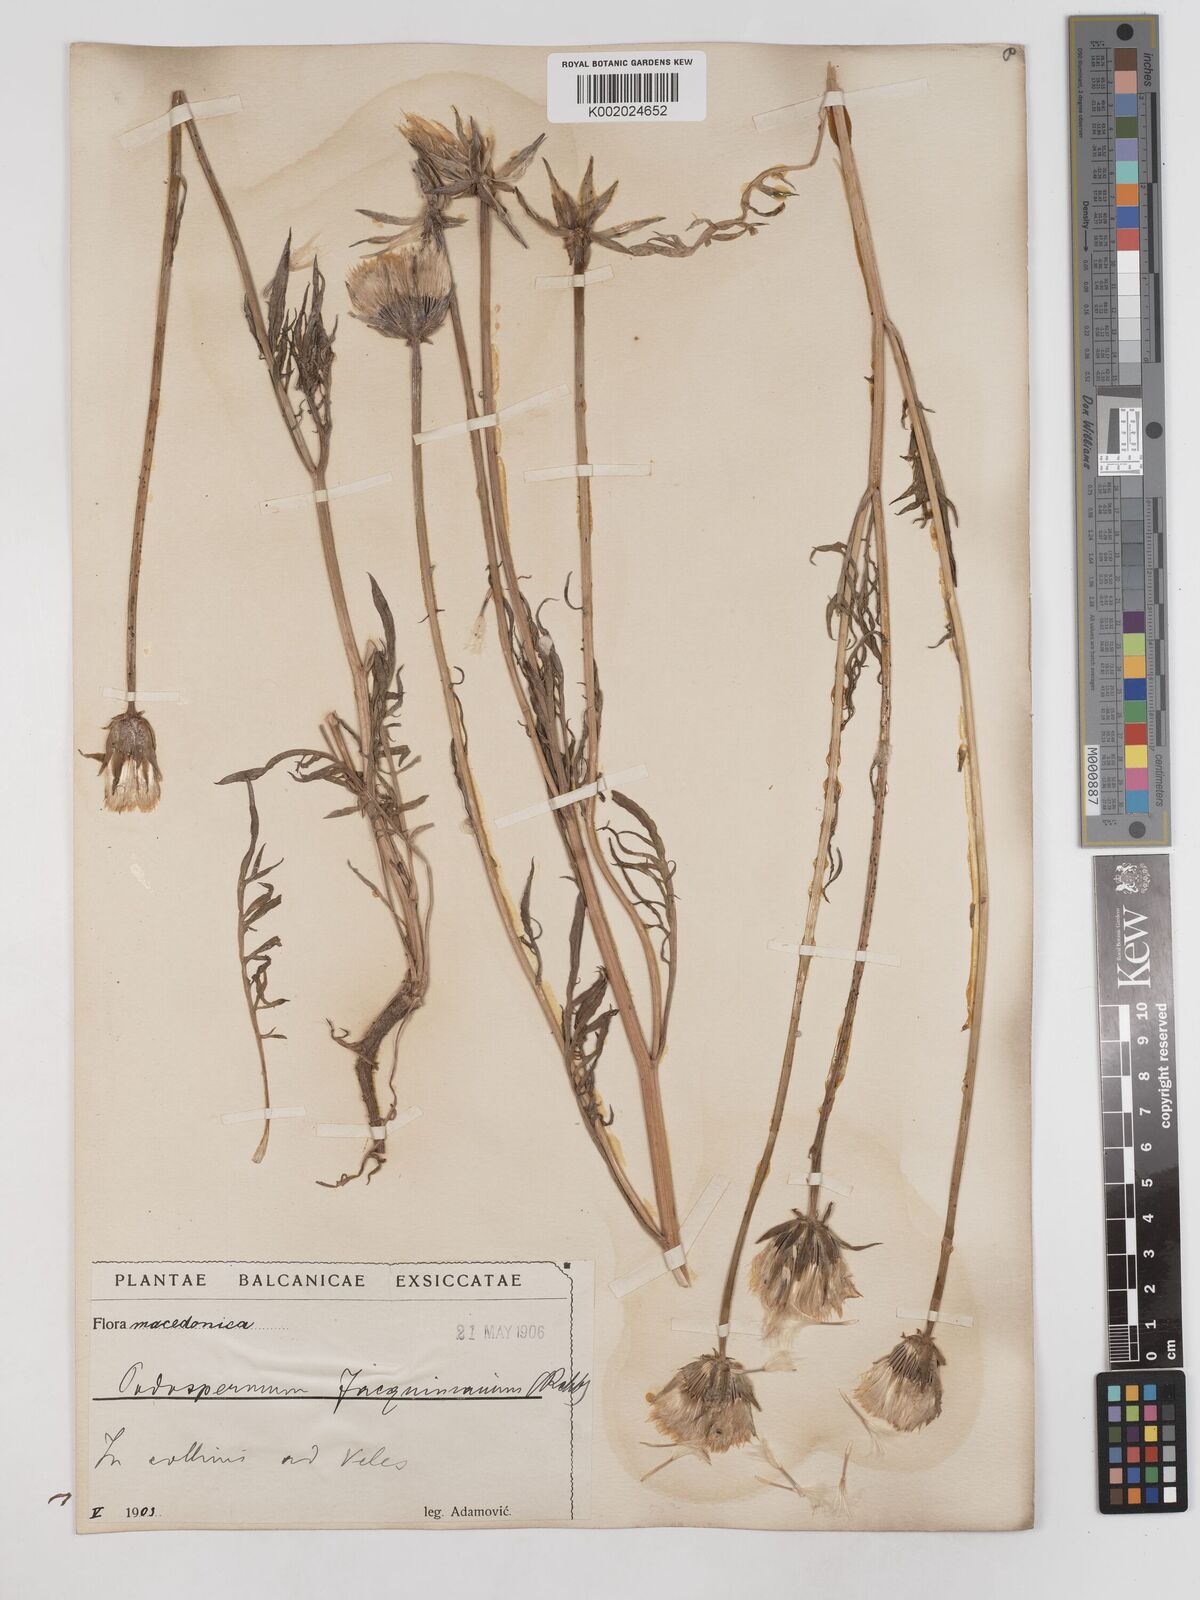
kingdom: Plantae
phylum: Tracheophyta
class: Magnoliopsida
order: Asterales
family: Asteraceae
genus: Scorzonera
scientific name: Scorzonera cana
